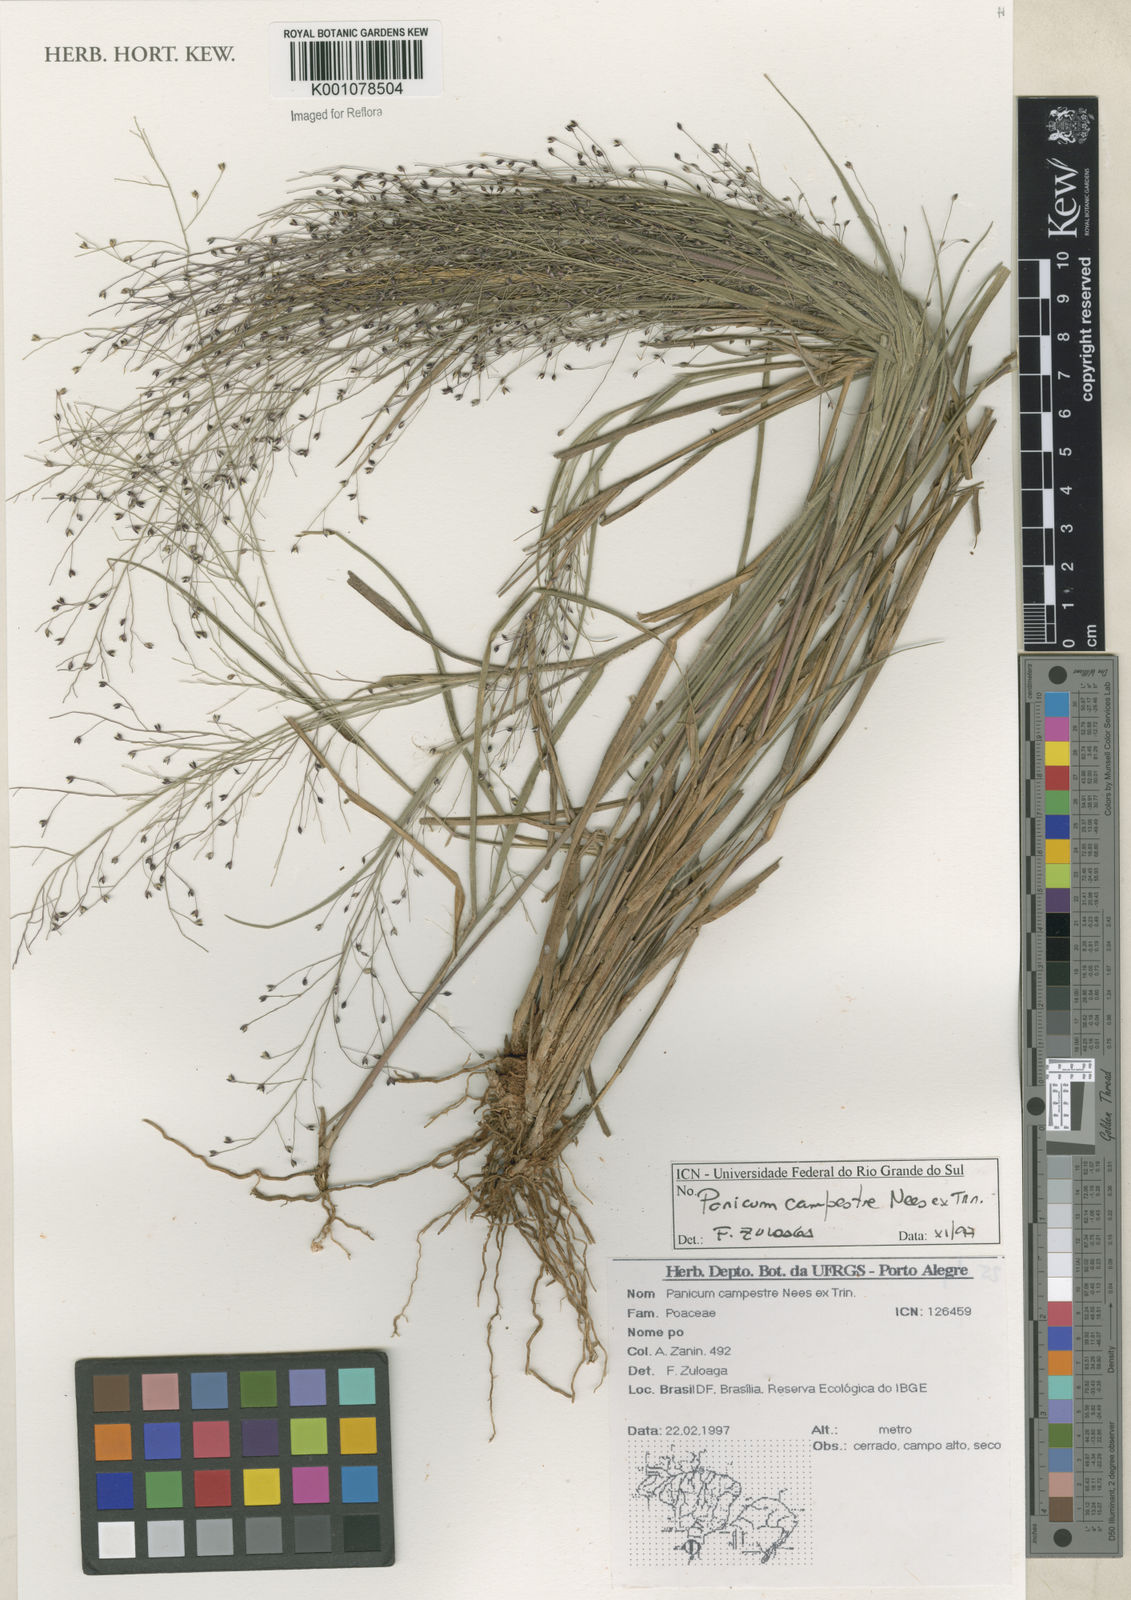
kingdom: Plantae
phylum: Tracheophyta
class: Liliopsida
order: Poales
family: Poaceae
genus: Panicum
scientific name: Panicum campestre
